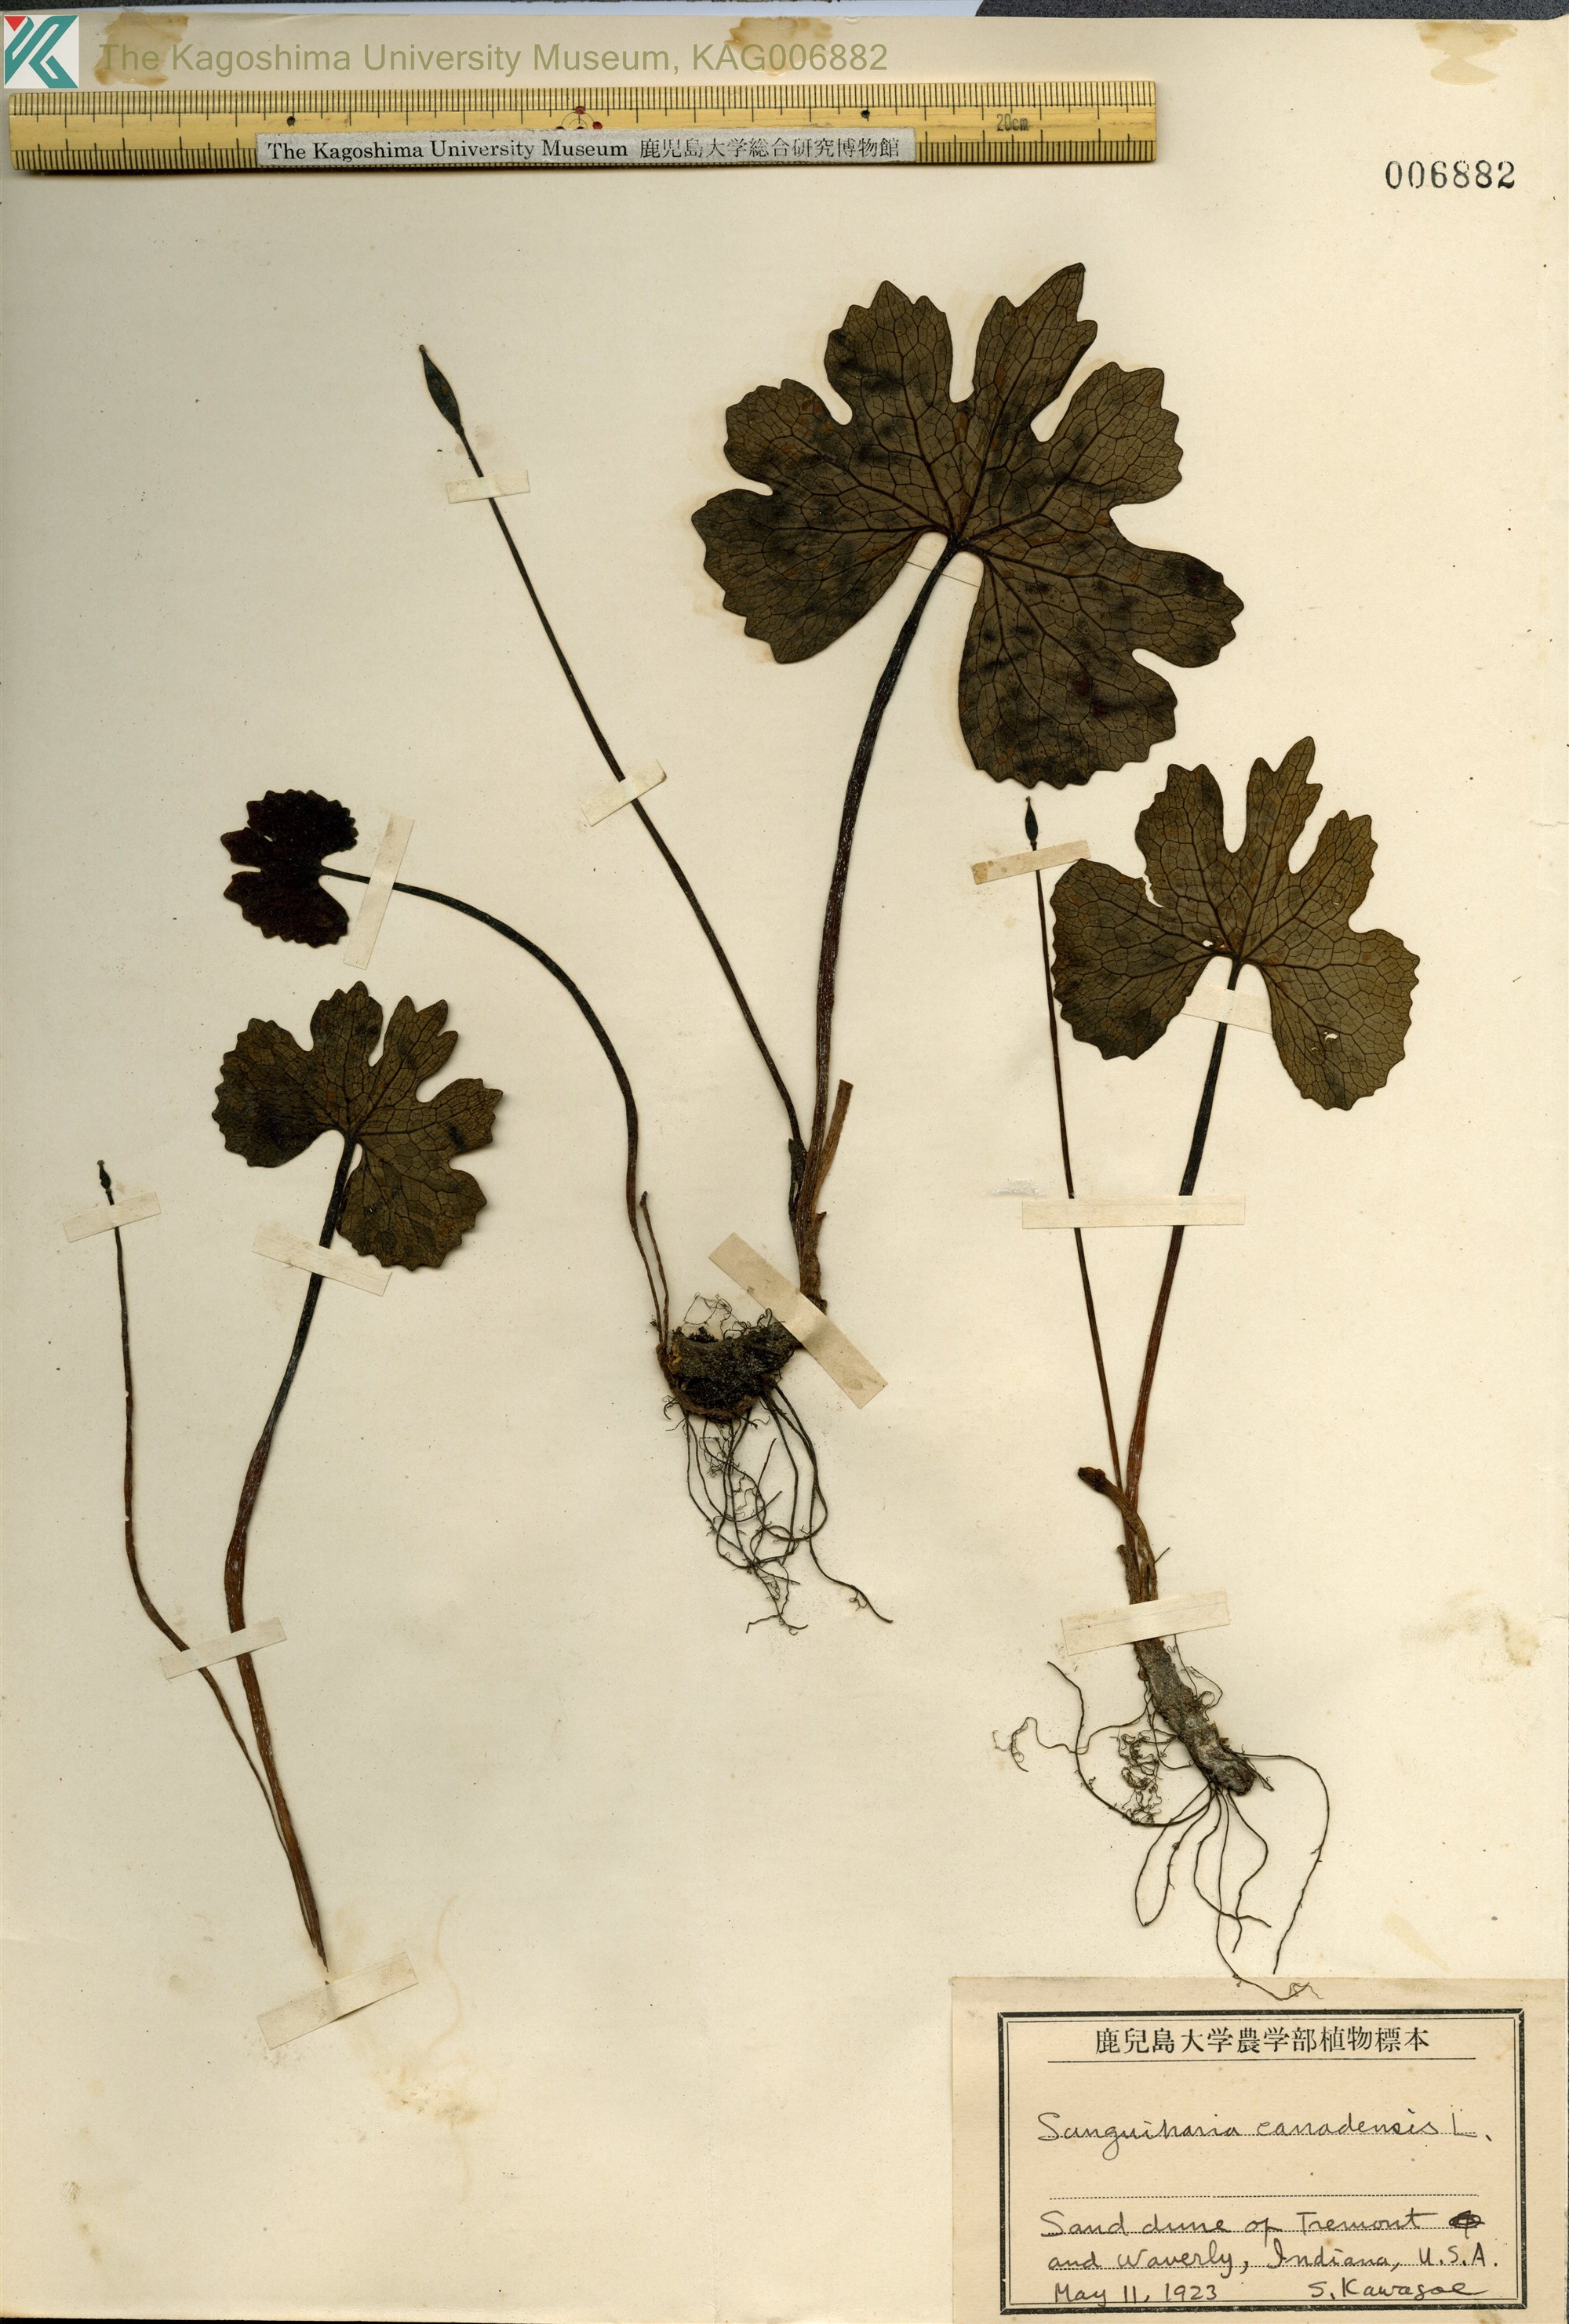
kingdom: Plantae
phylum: Tracheophyta
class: Magnoliopsida
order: Ranunculales
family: Papaveraceae
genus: Sanguinaria
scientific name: Sanguinaria canadensis
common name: Bloodroot
